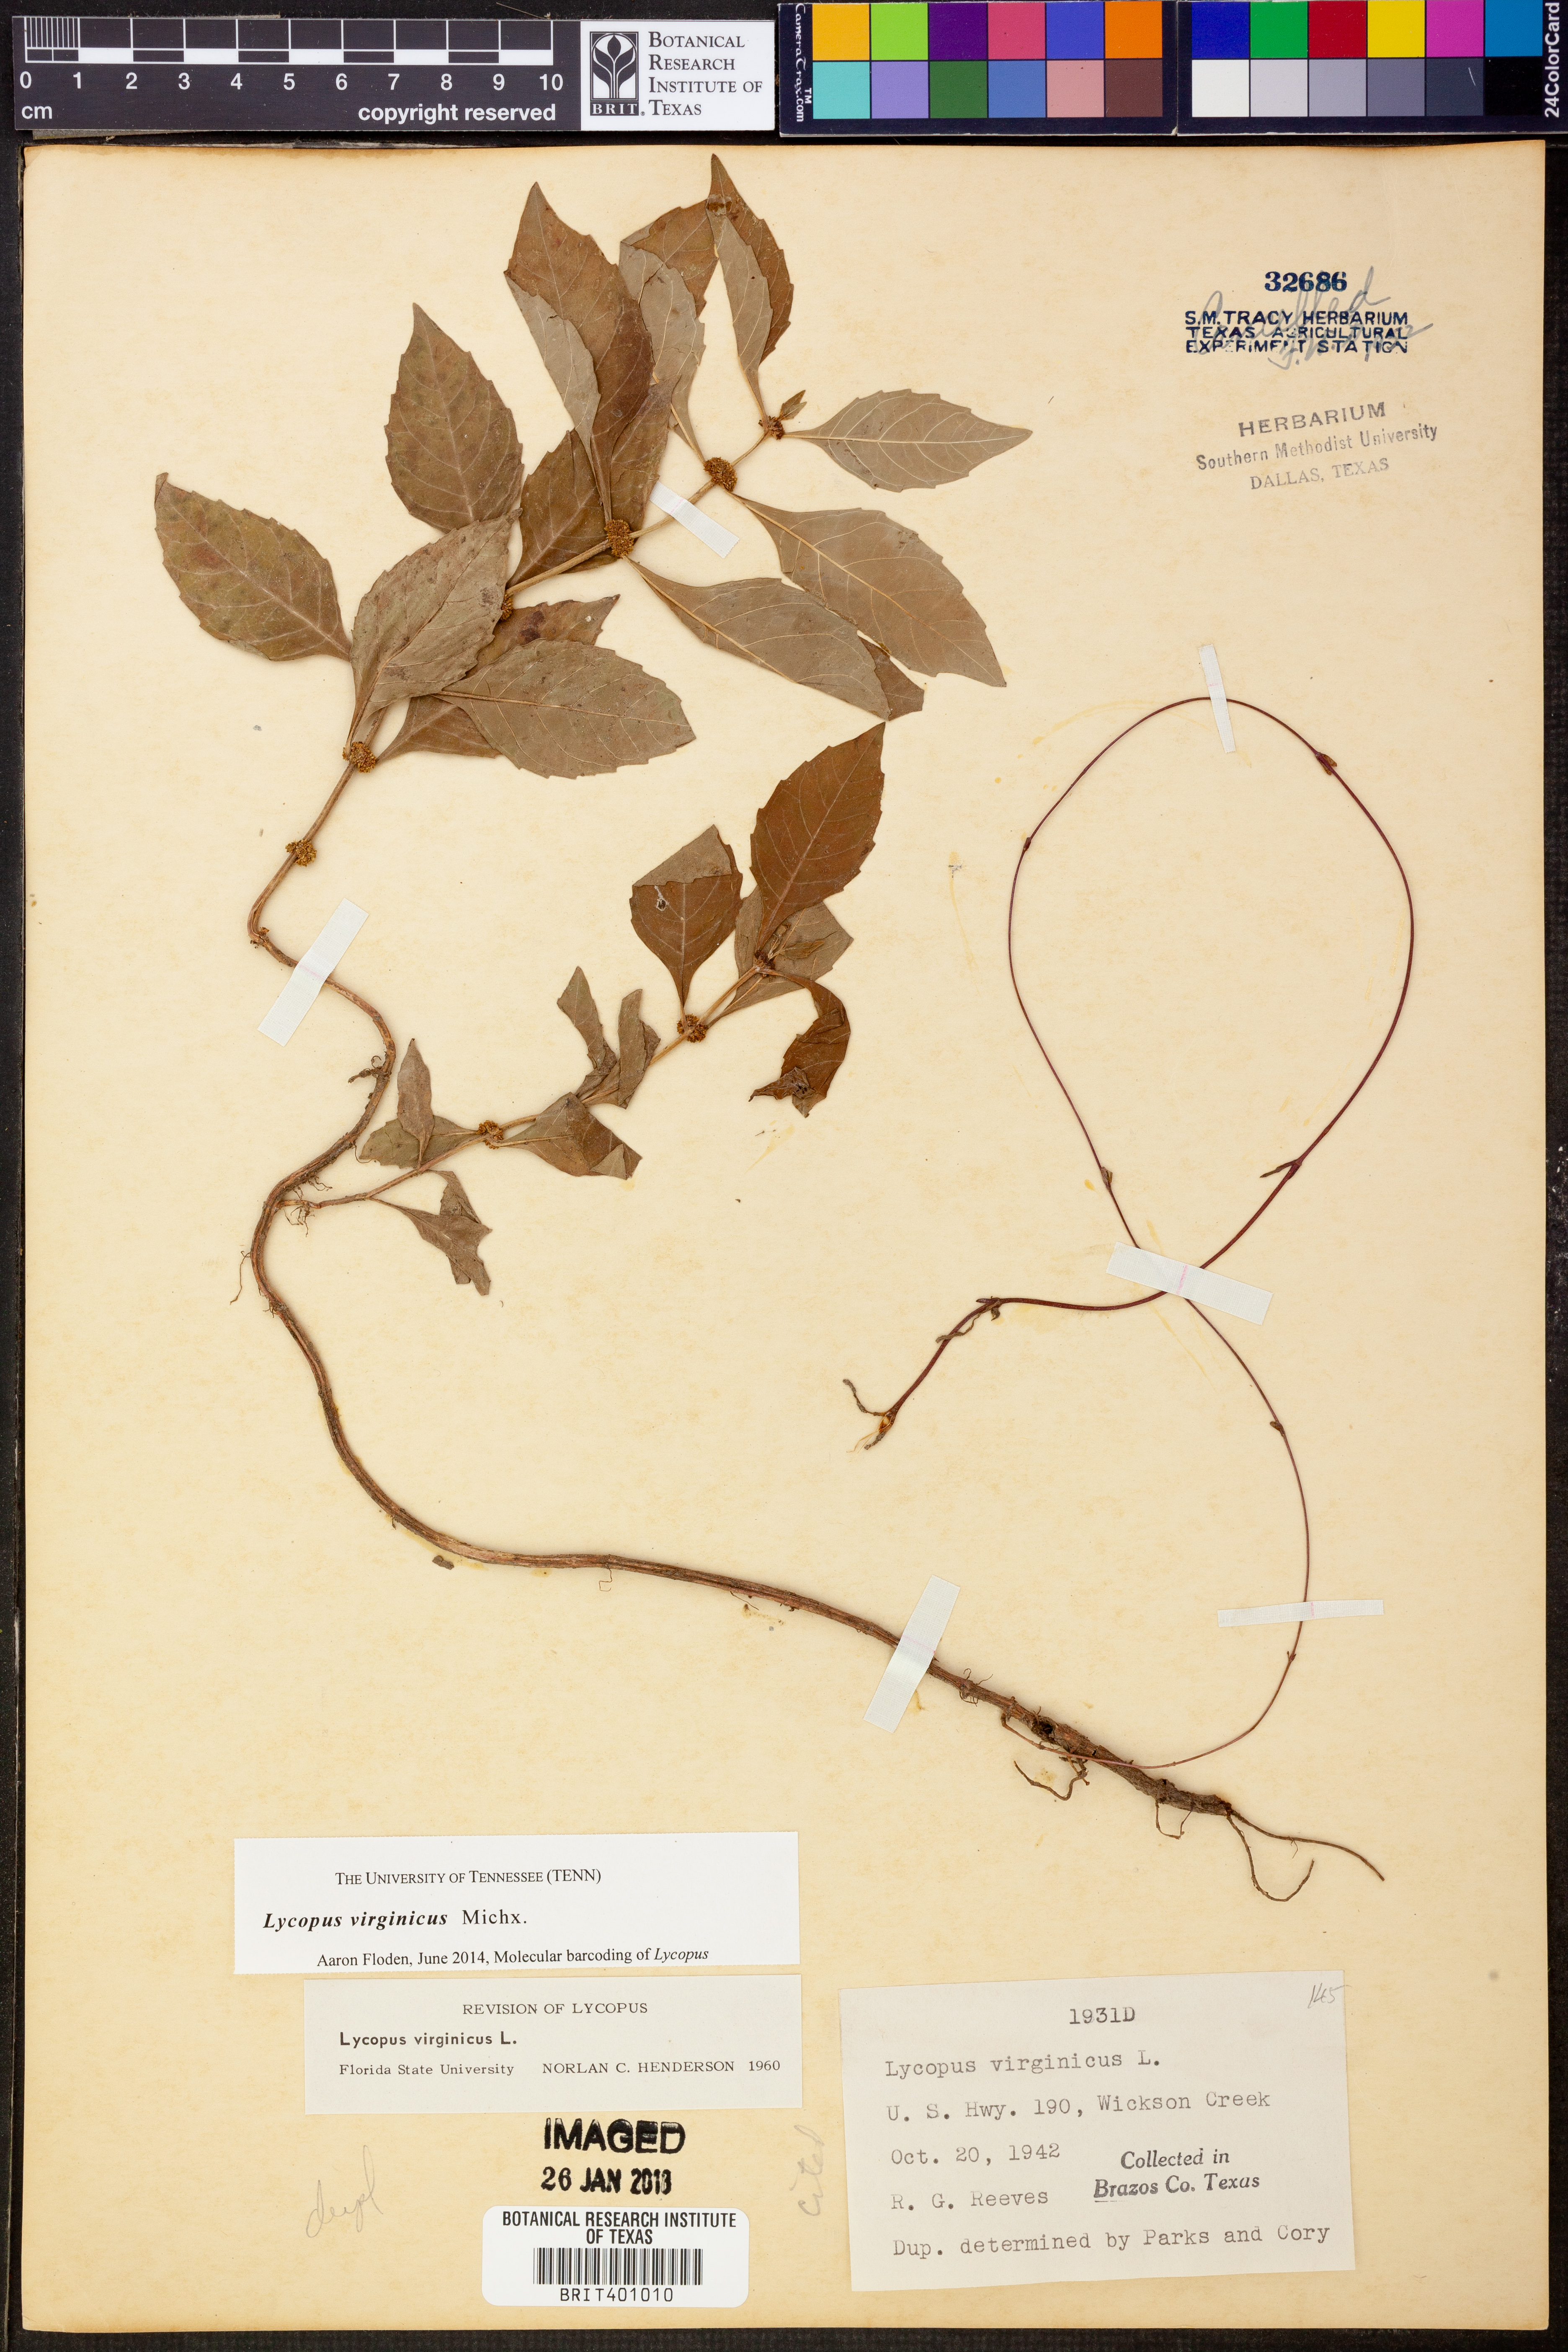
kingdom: Plantae
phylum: Tracheophyta
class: Magnoliopsida
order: Lamiales
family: Lamiaceae
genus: Lycopus
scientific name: Lycopus virginicus
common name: Bugleweed
